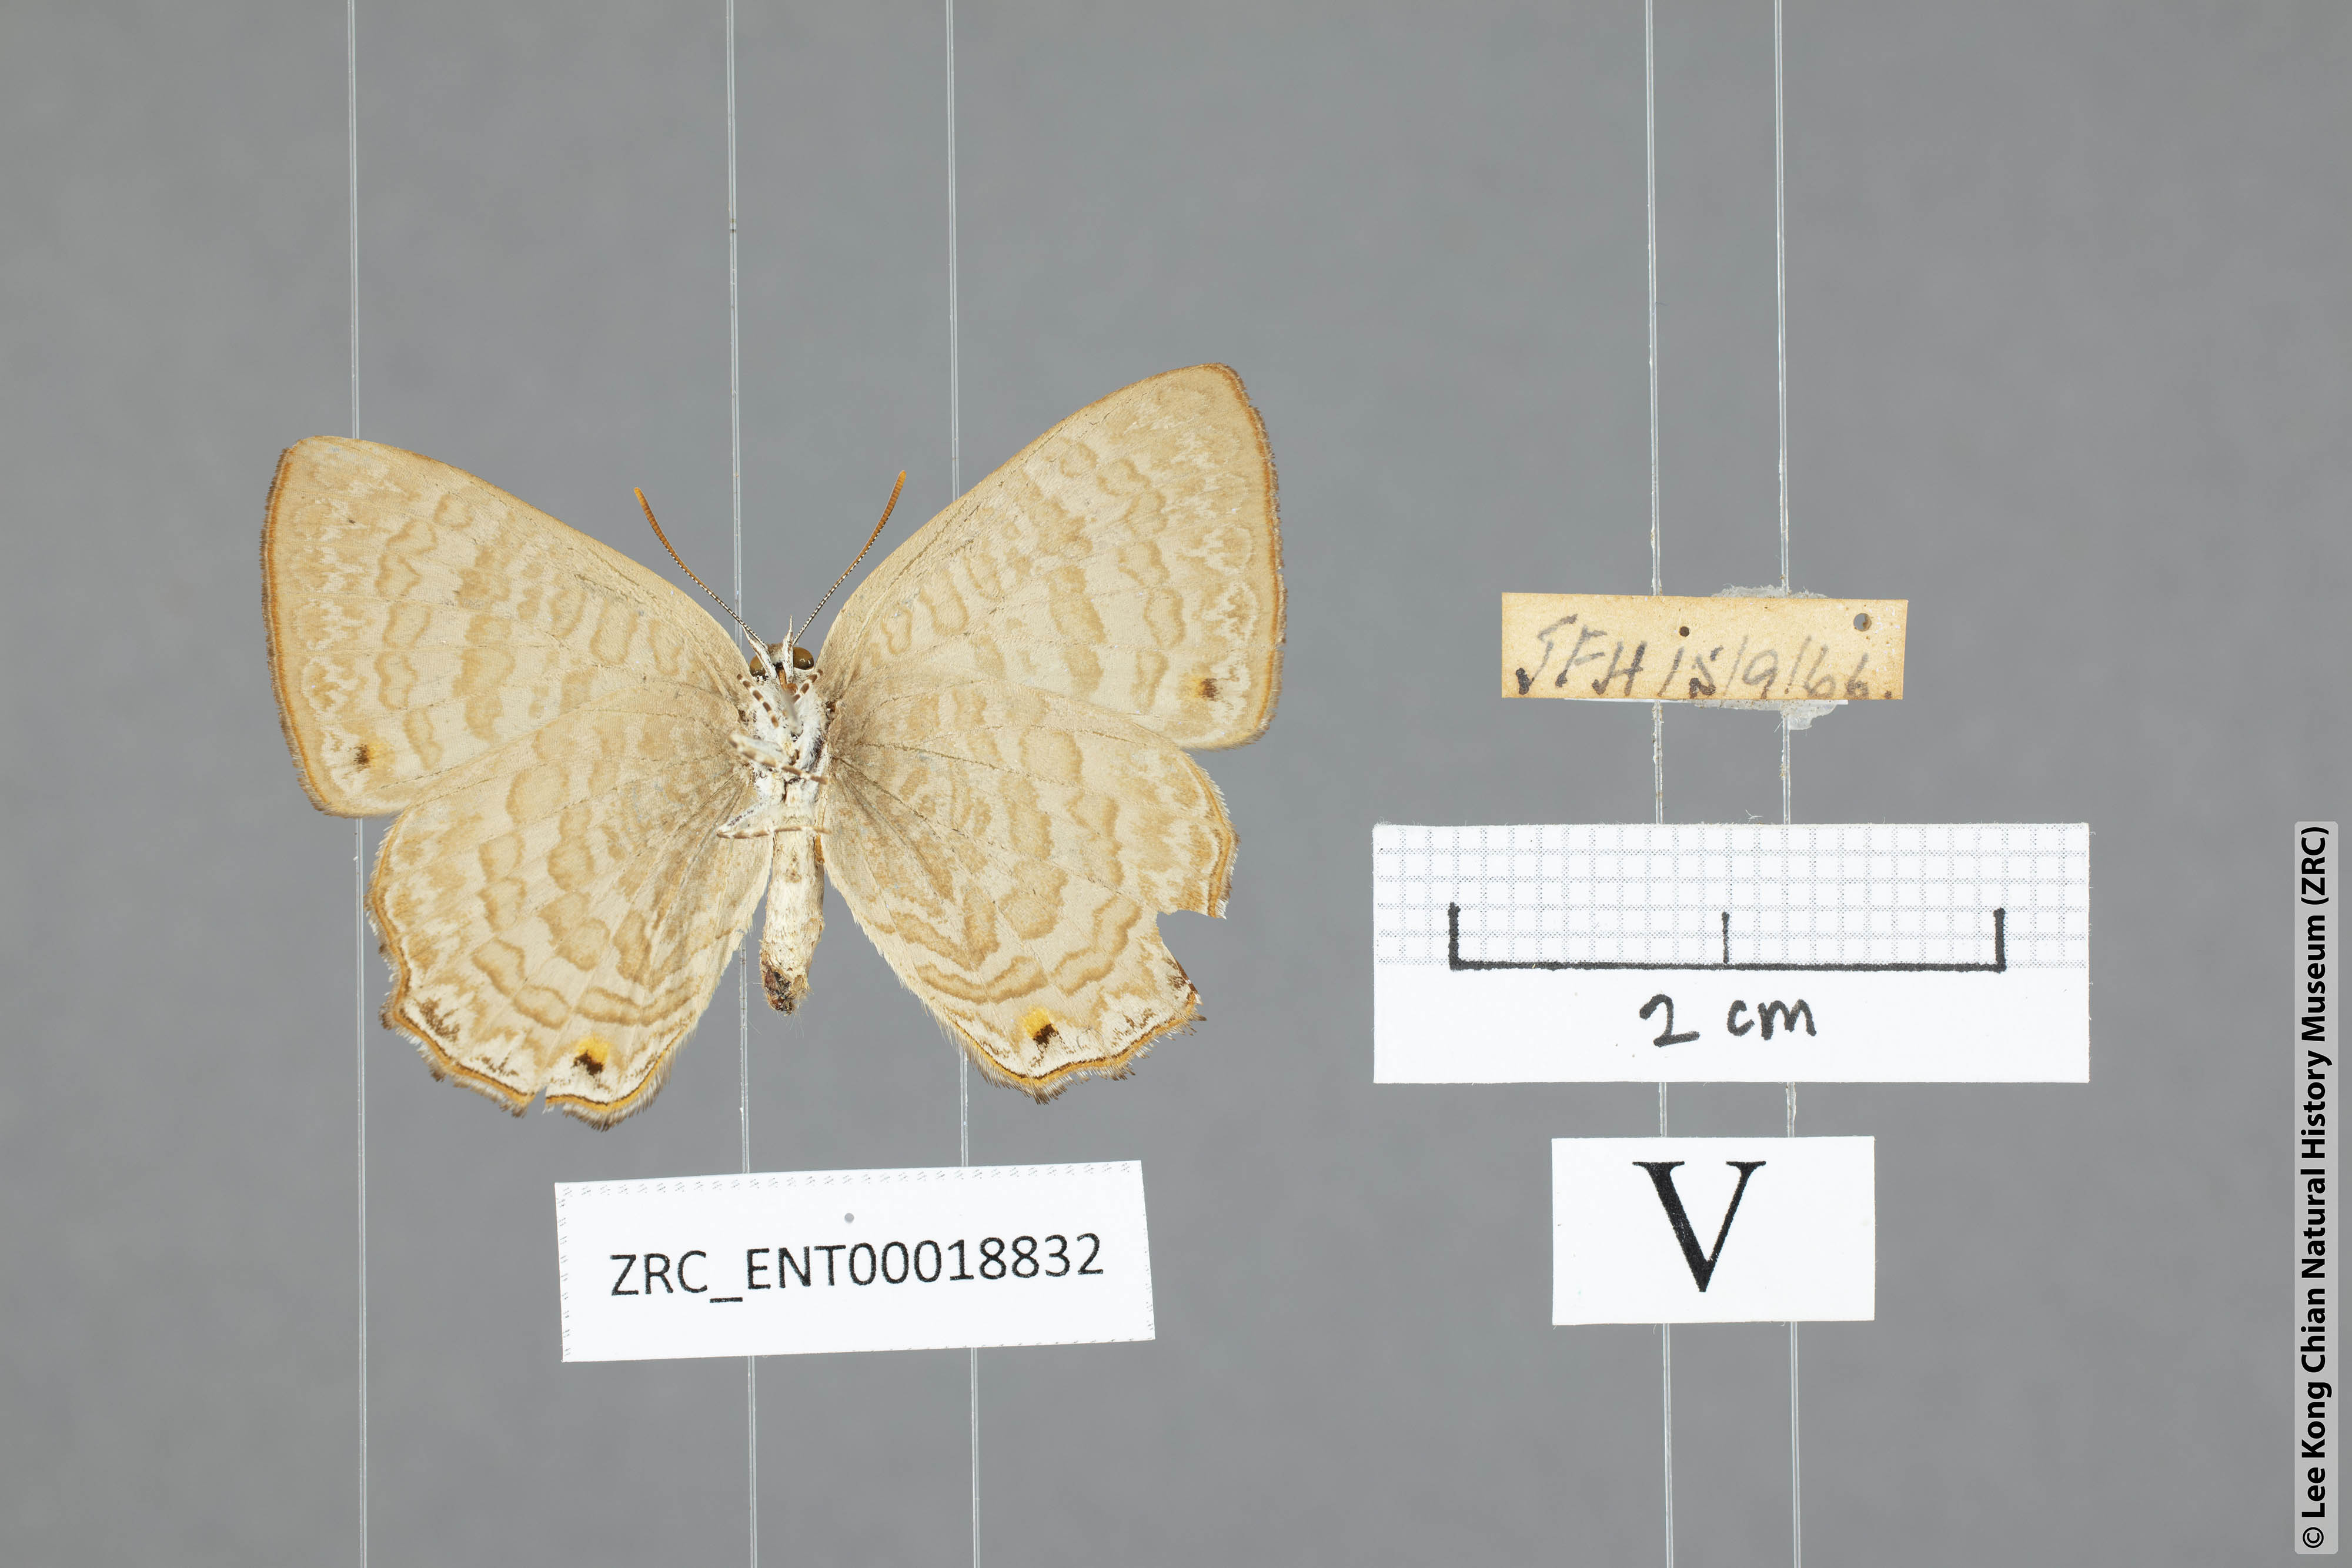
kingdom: Animalia
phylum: Arthropoda
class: Insecta
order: Lepidoptera
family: Lycaenidae
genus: Poritia
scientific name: Poritia promula
